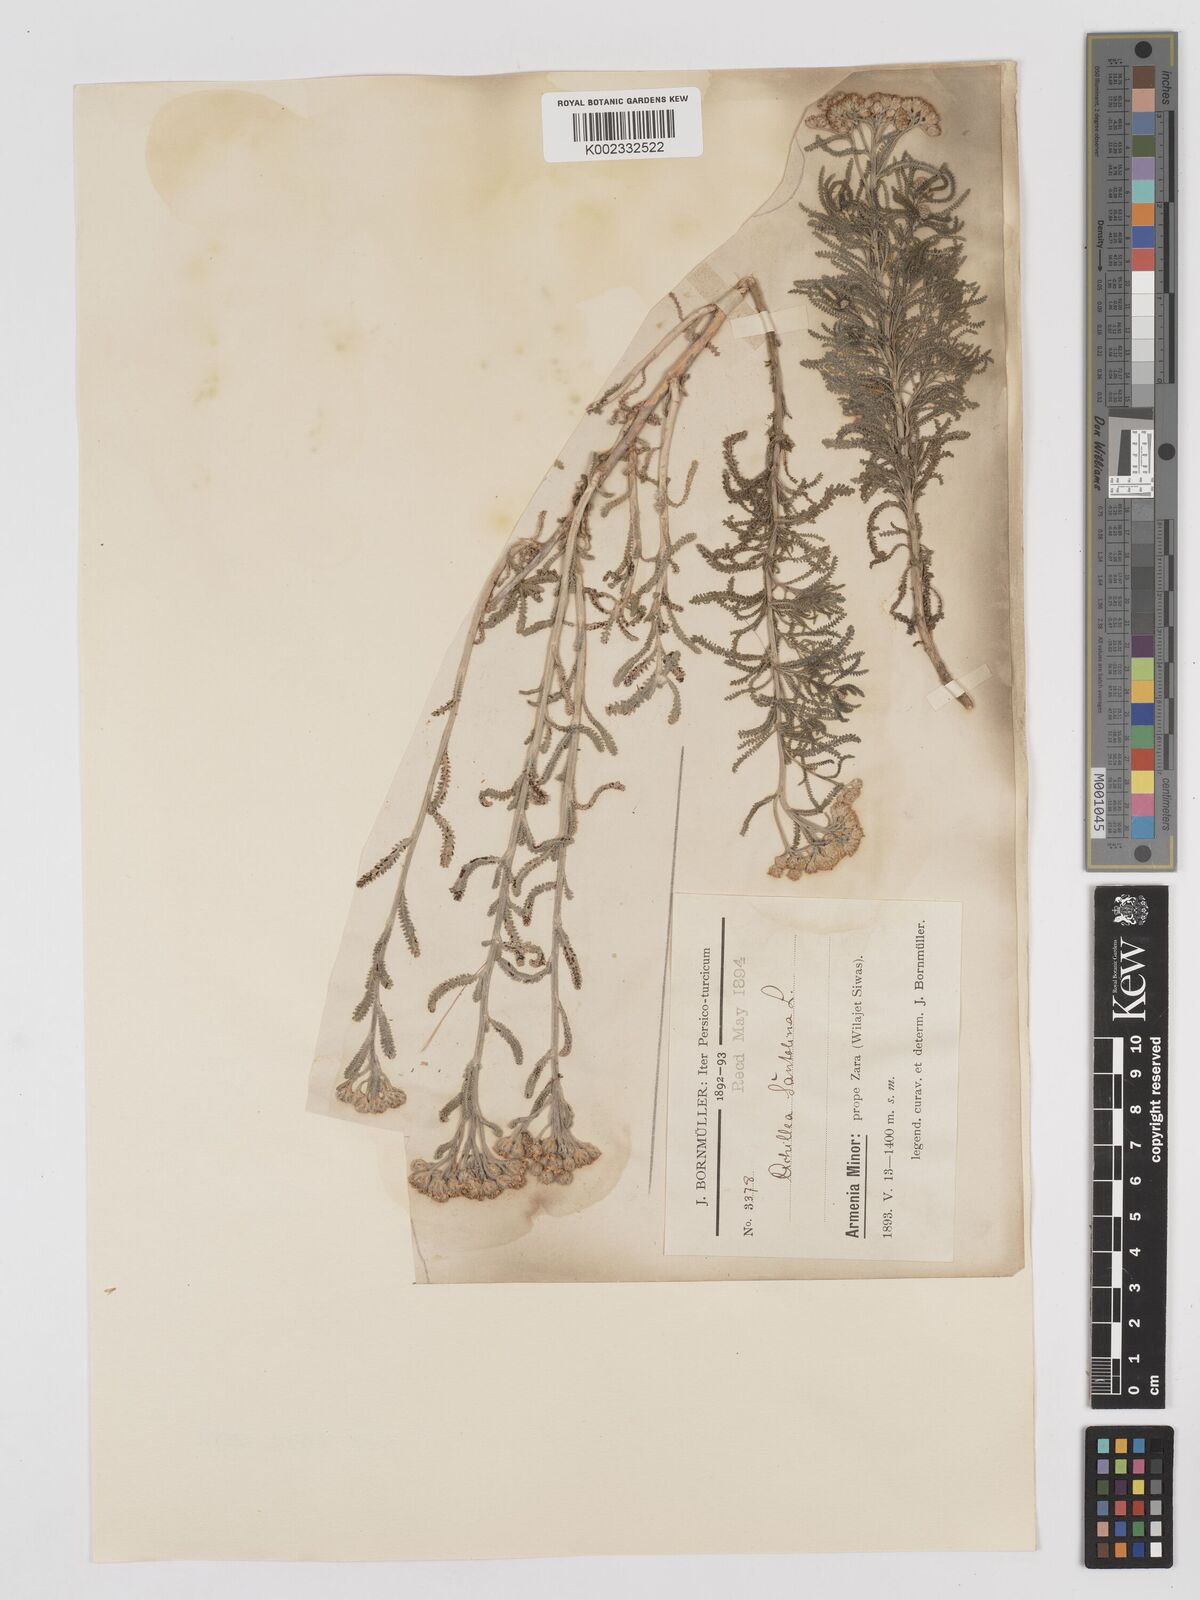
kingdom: Plantae
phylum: Tracheophyta
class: Magnoliopsida
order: Asterales
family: Asteraceae
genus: Achillea
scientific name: Achillea tenuifolia
